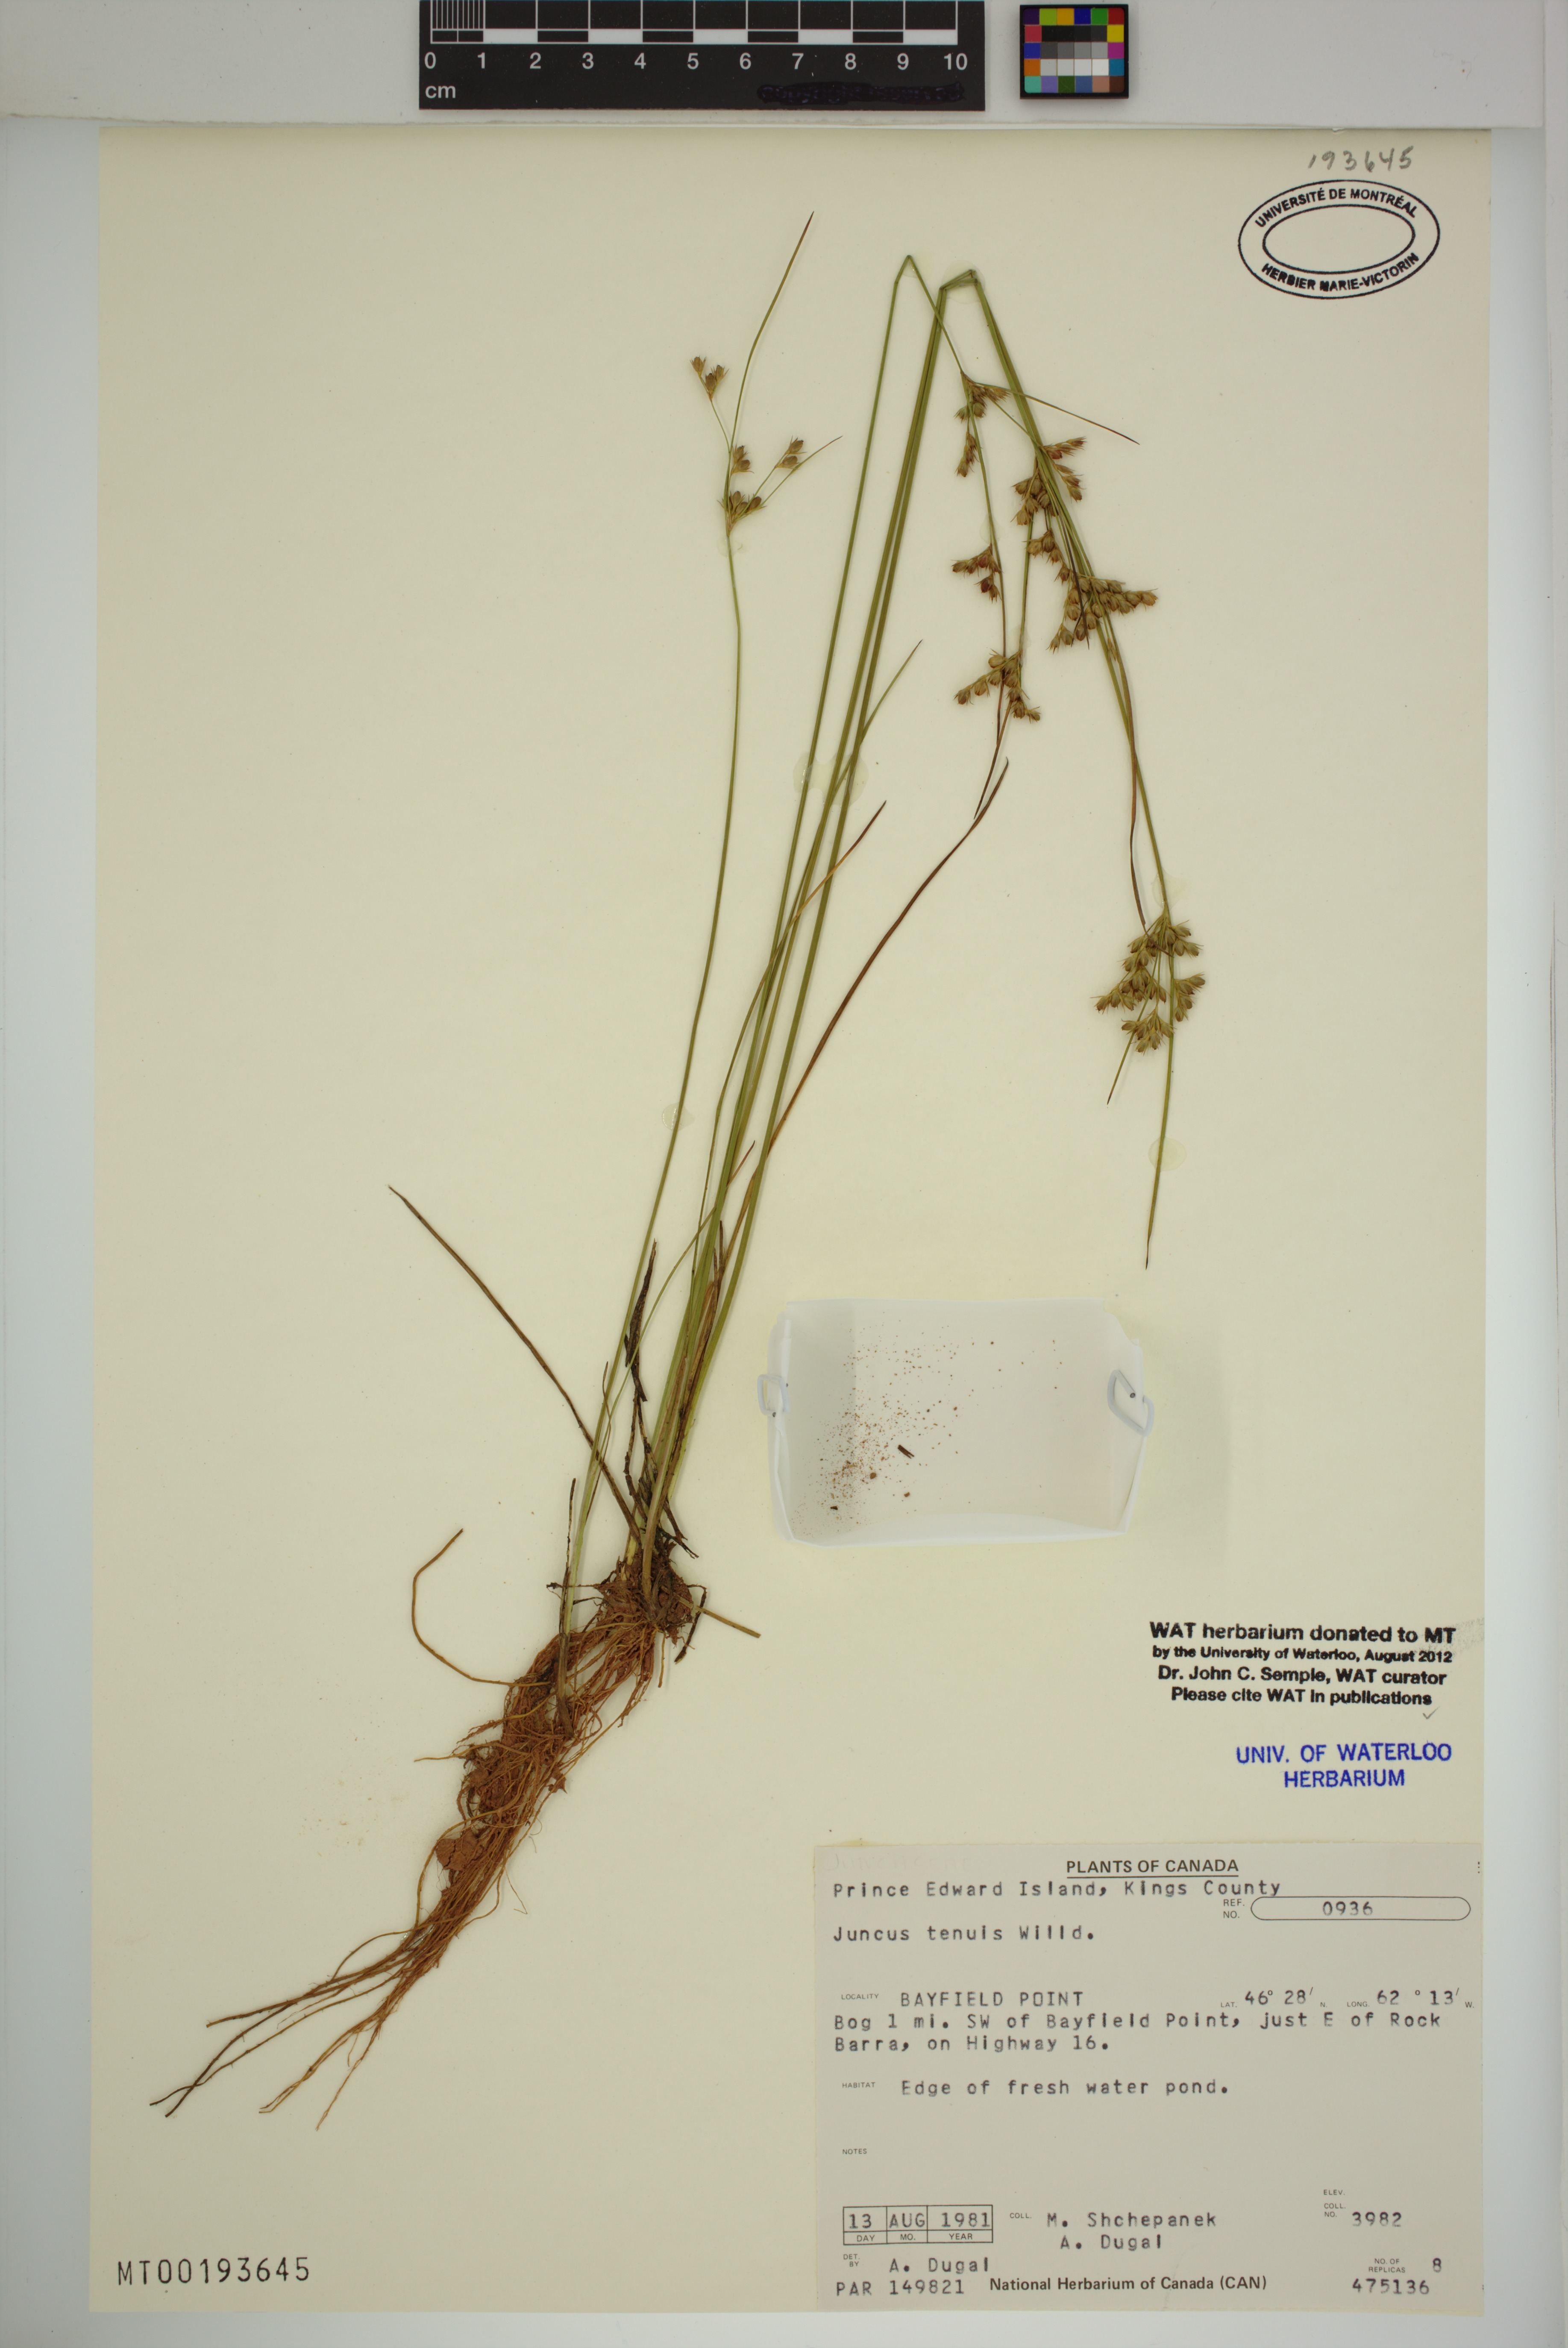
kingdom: Plantae
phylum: Tracheophyta
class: Liliopsida
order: Poales
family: Juncaceae
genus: Juncus
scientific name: Juncus tenuis
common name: Slender rush
